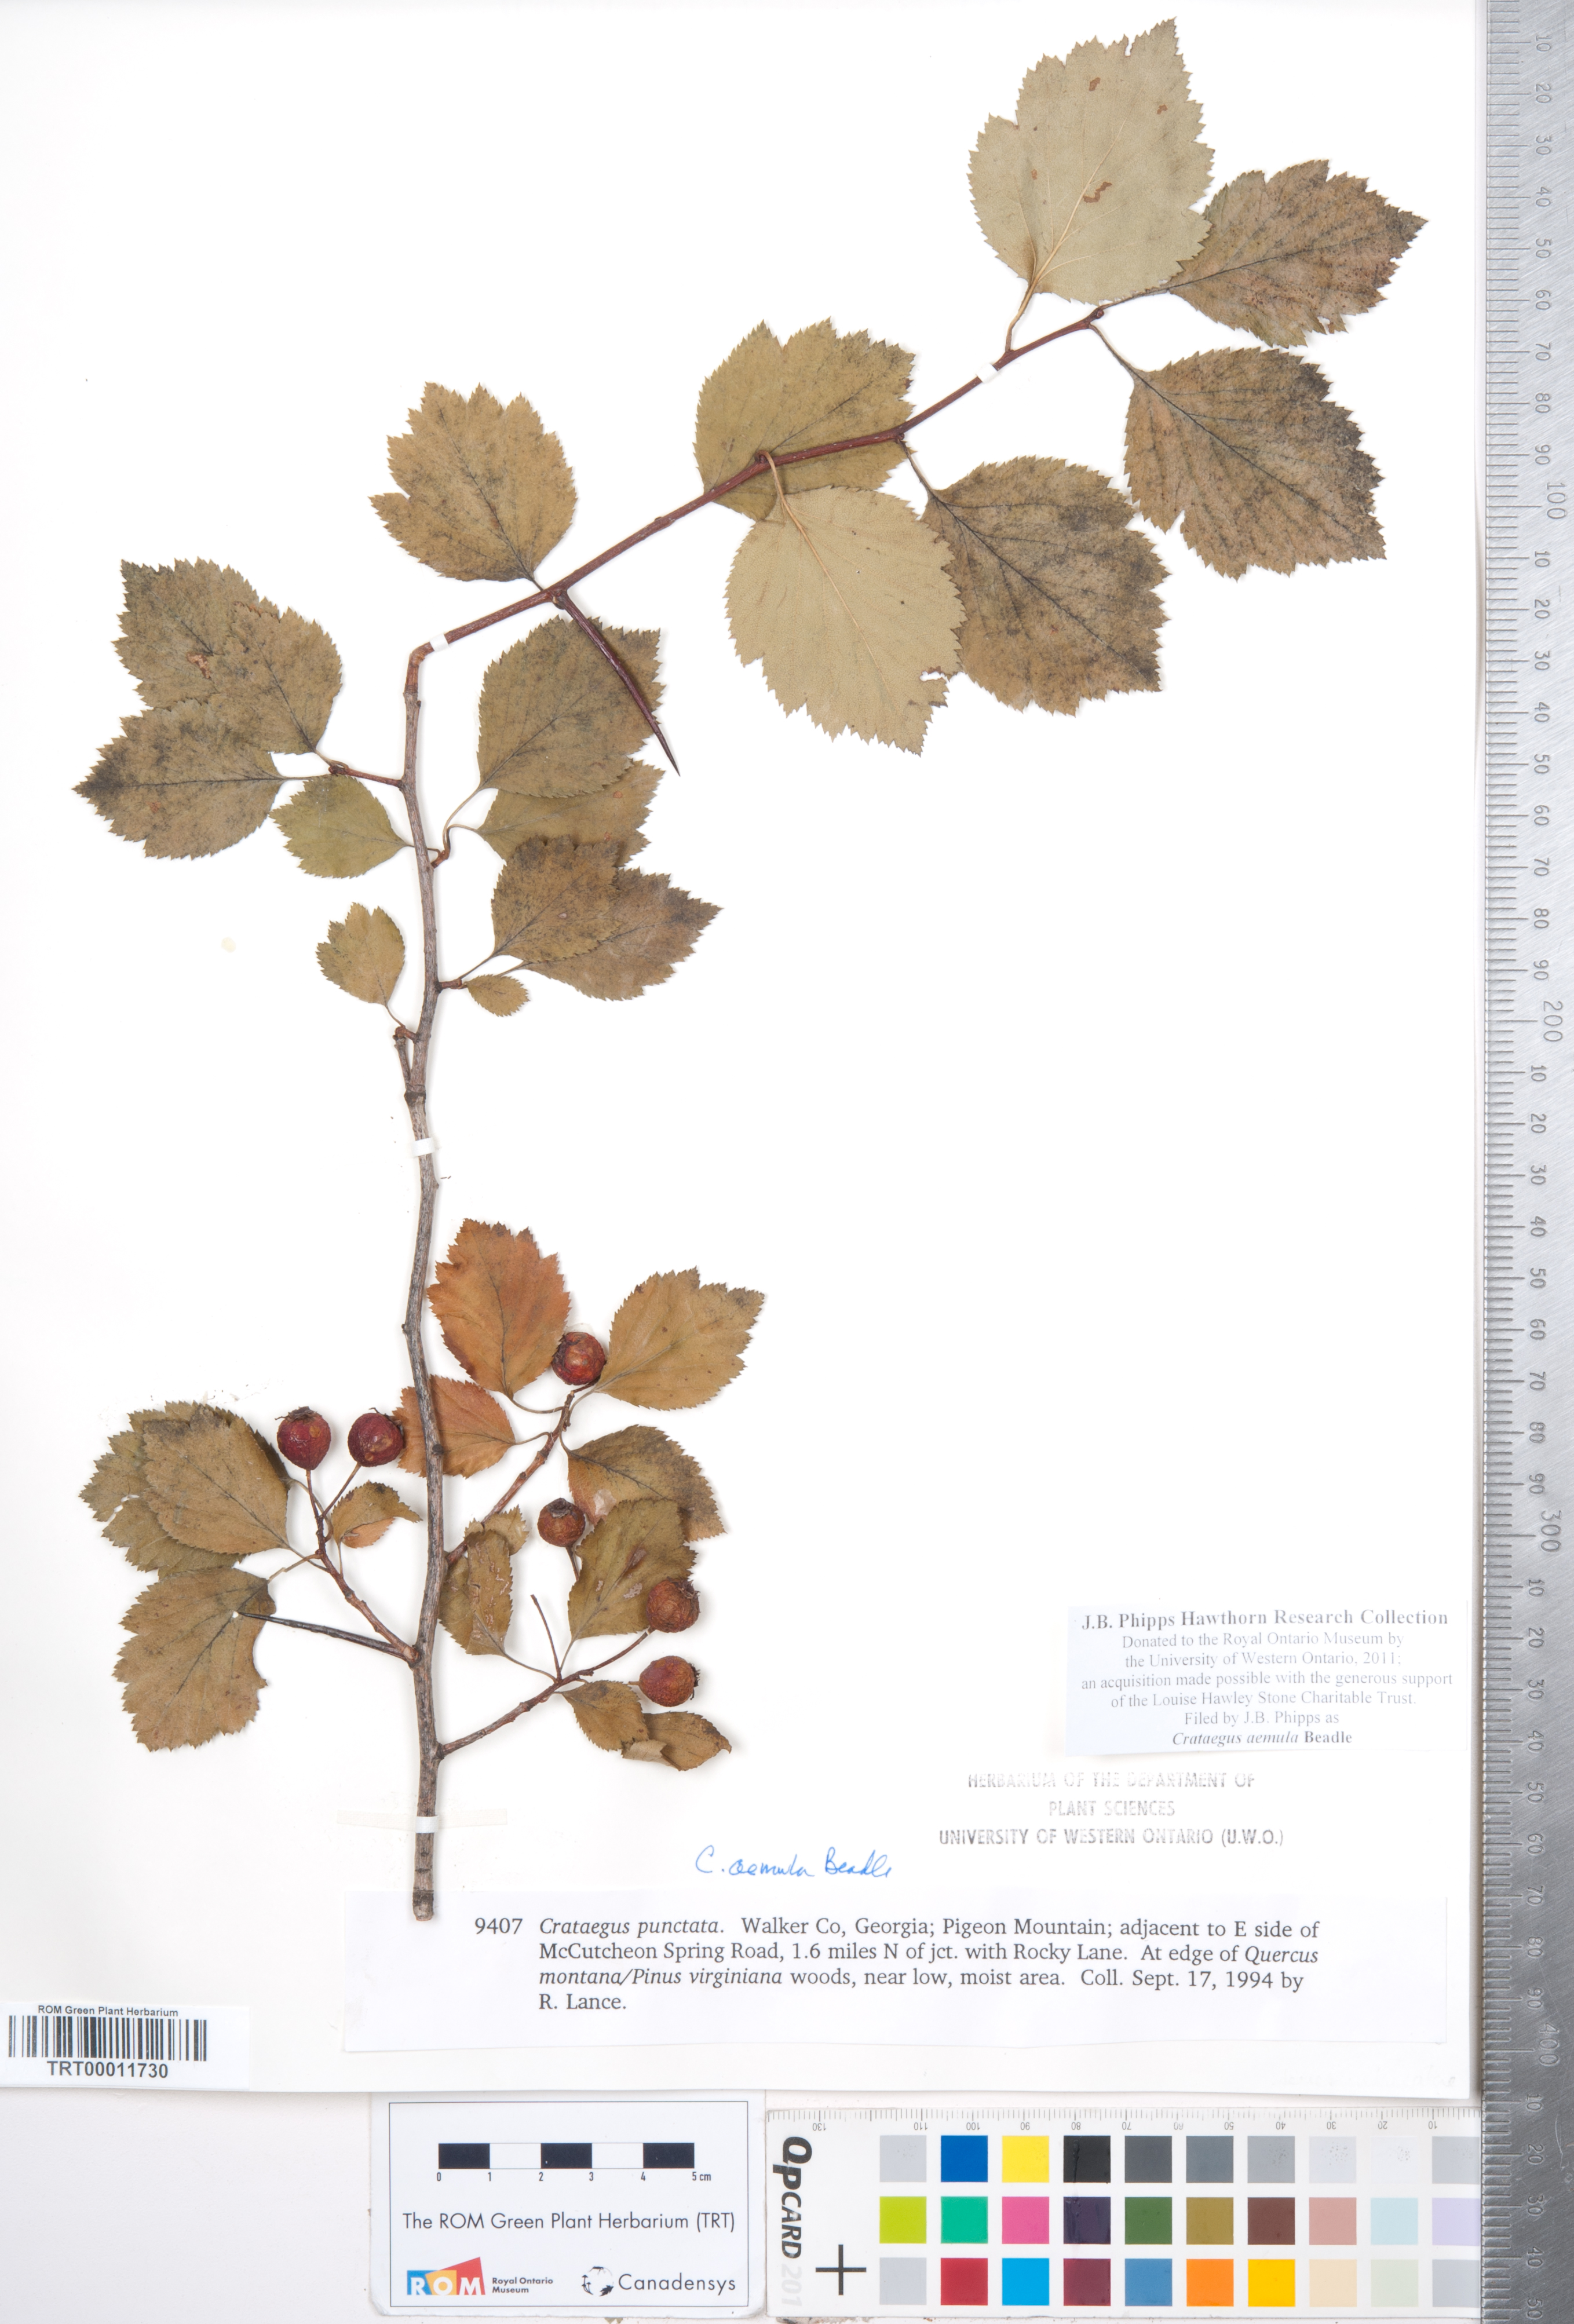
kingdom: Plantae
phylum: Tracheophyta
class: Magnoliopsida
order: Rosales
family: Rosaceae
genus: Crataegus
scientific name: Crataegus iracunda
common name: Stolon-bearing hawthorn
